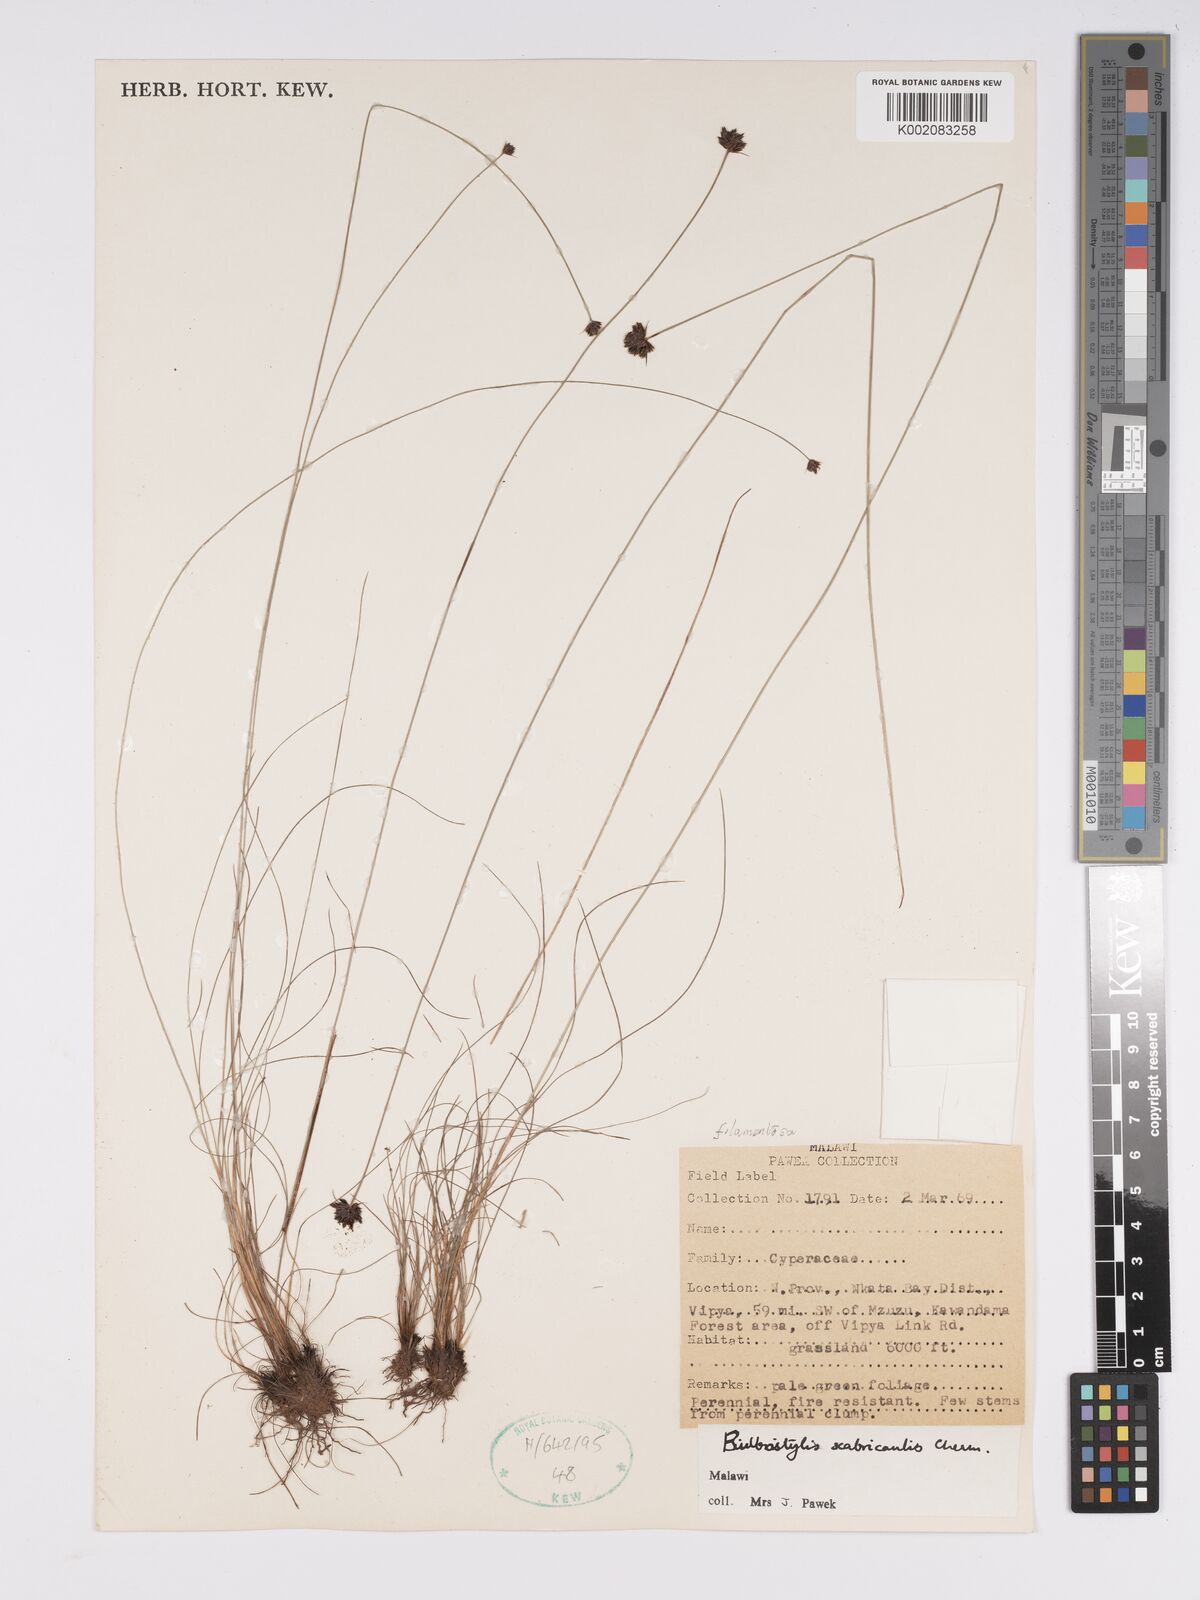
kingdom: Plantae
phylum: Tracheophyta
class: Liliopsida
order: Poales
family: Cyperaceae
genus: Bulbostylis
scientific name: Bulbostylis scabricaulis
